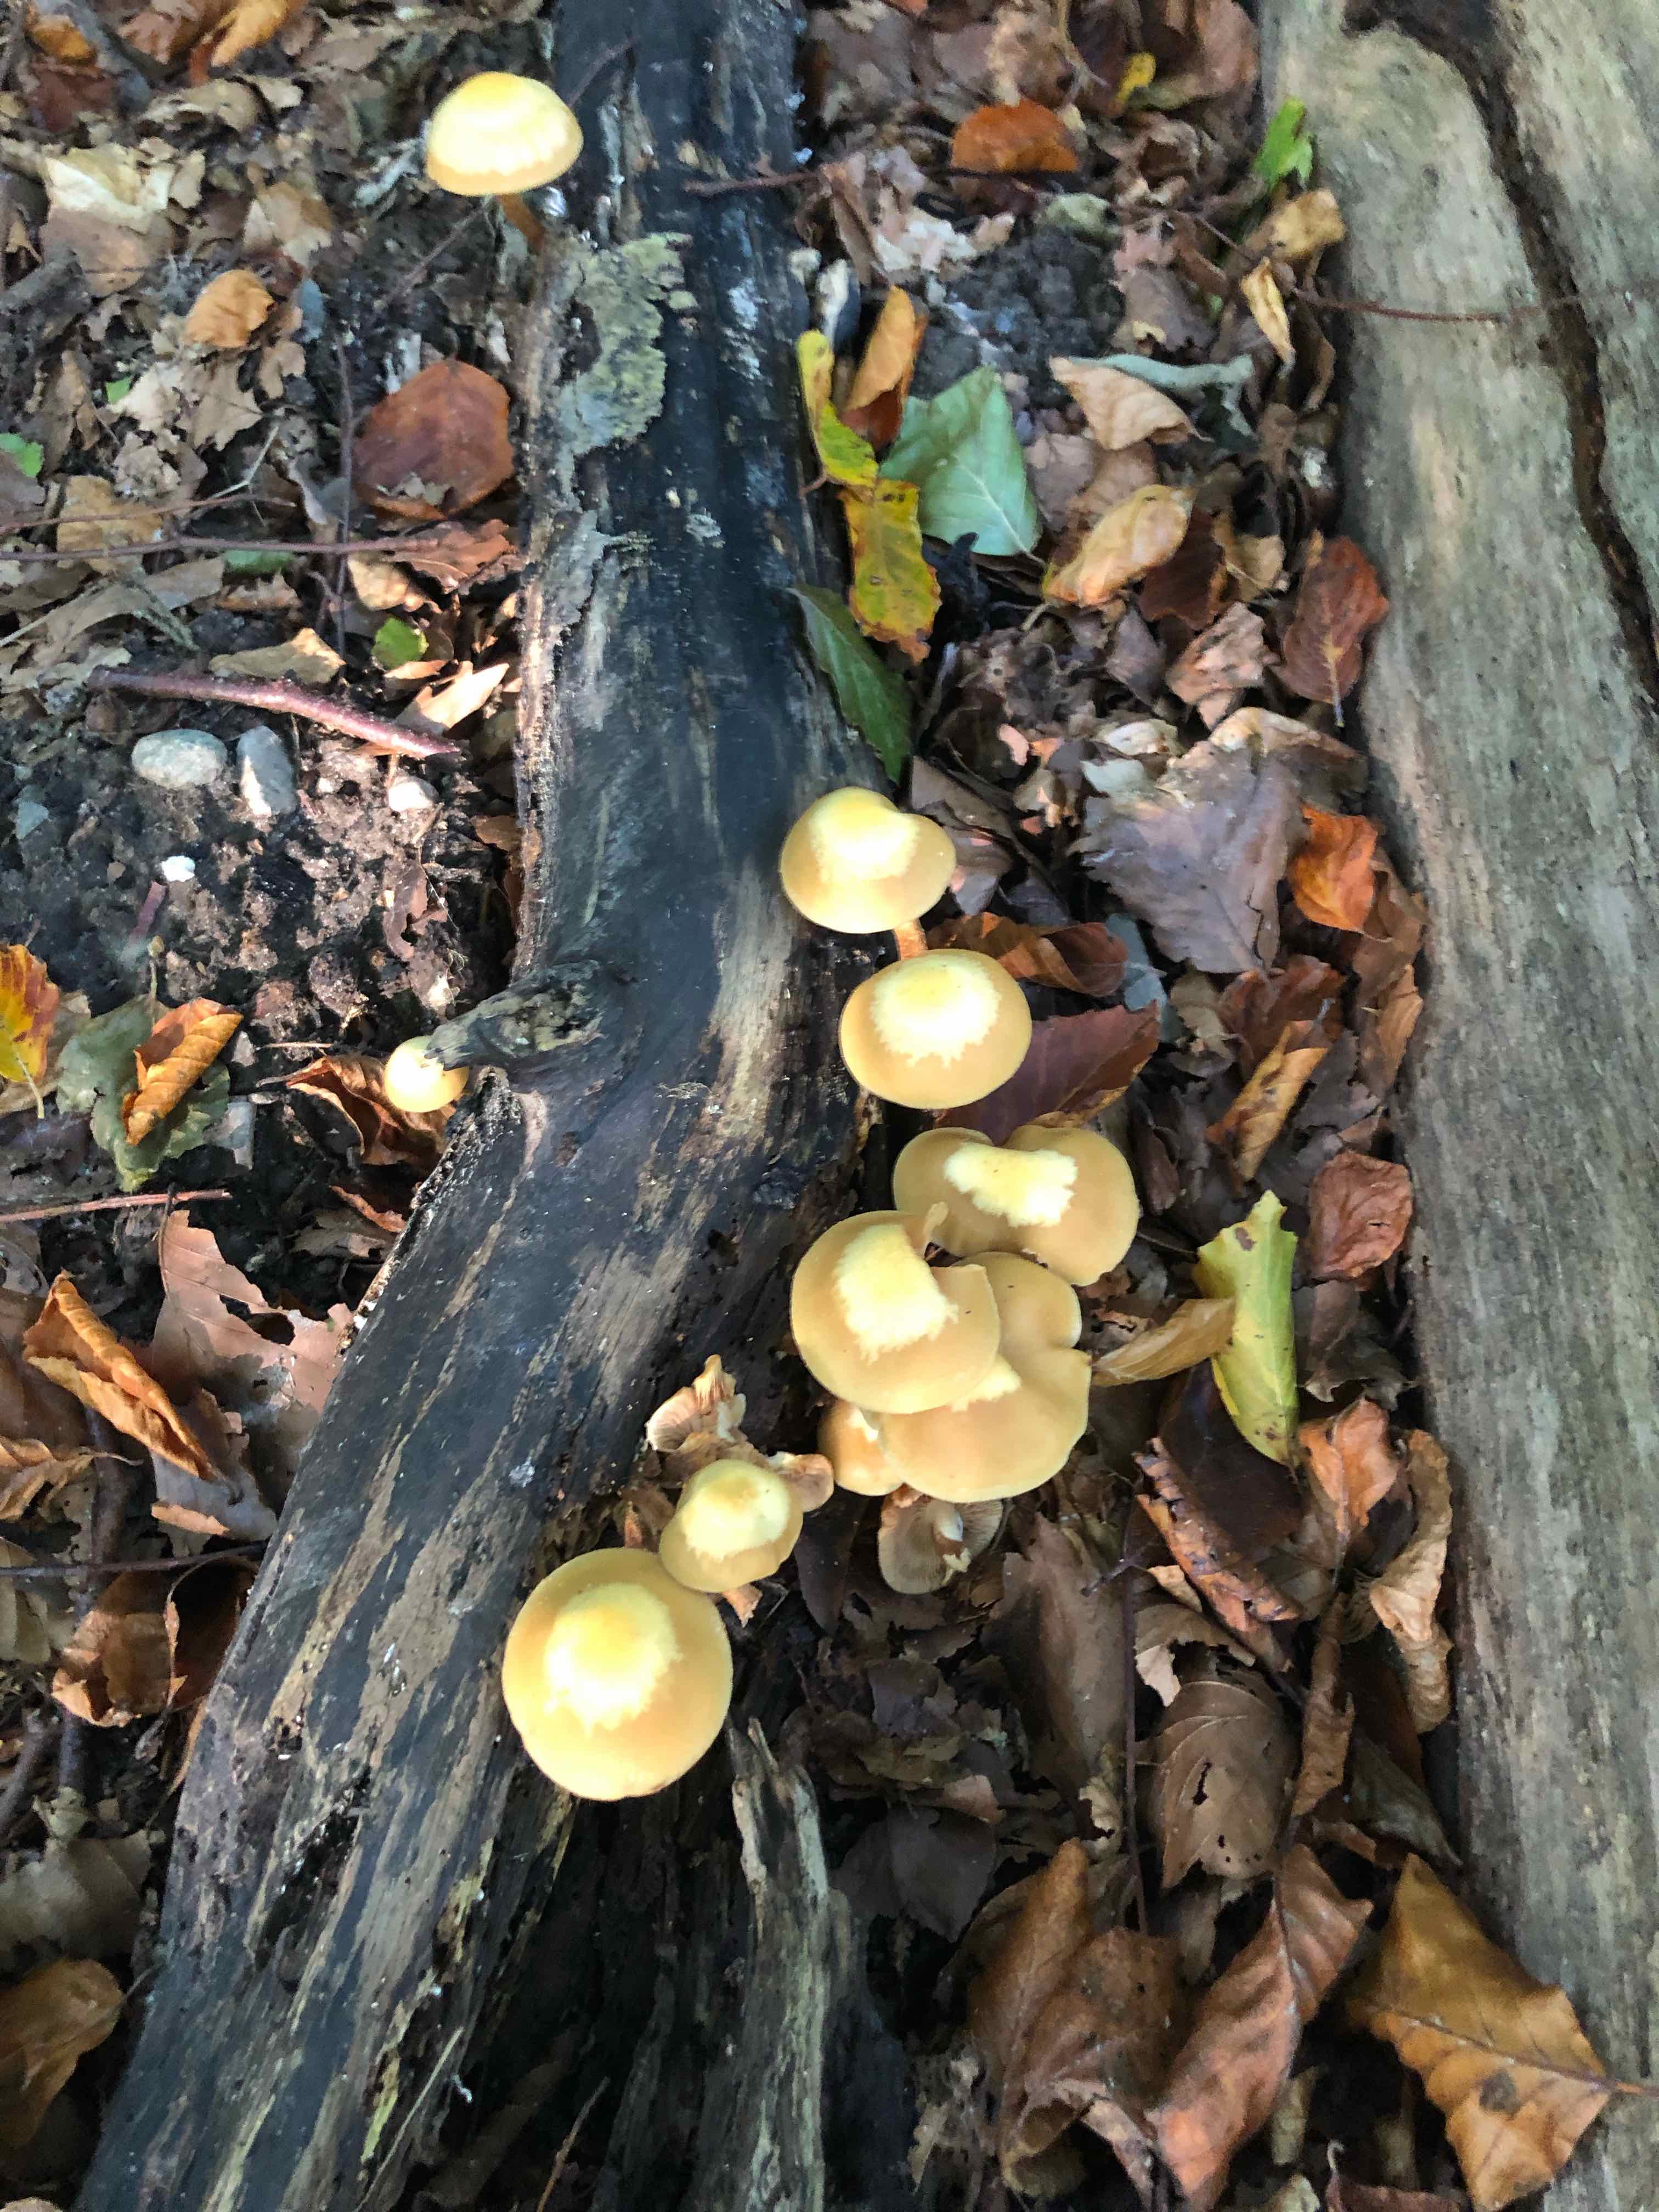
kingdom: Fungi
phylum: Basidiomycota
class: Agaricomycetes
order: Agaricales
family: Strophariaceae
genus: Kuehneromyces
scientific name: Kuehneromyces mutabilis
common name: foranderlig skælhat
